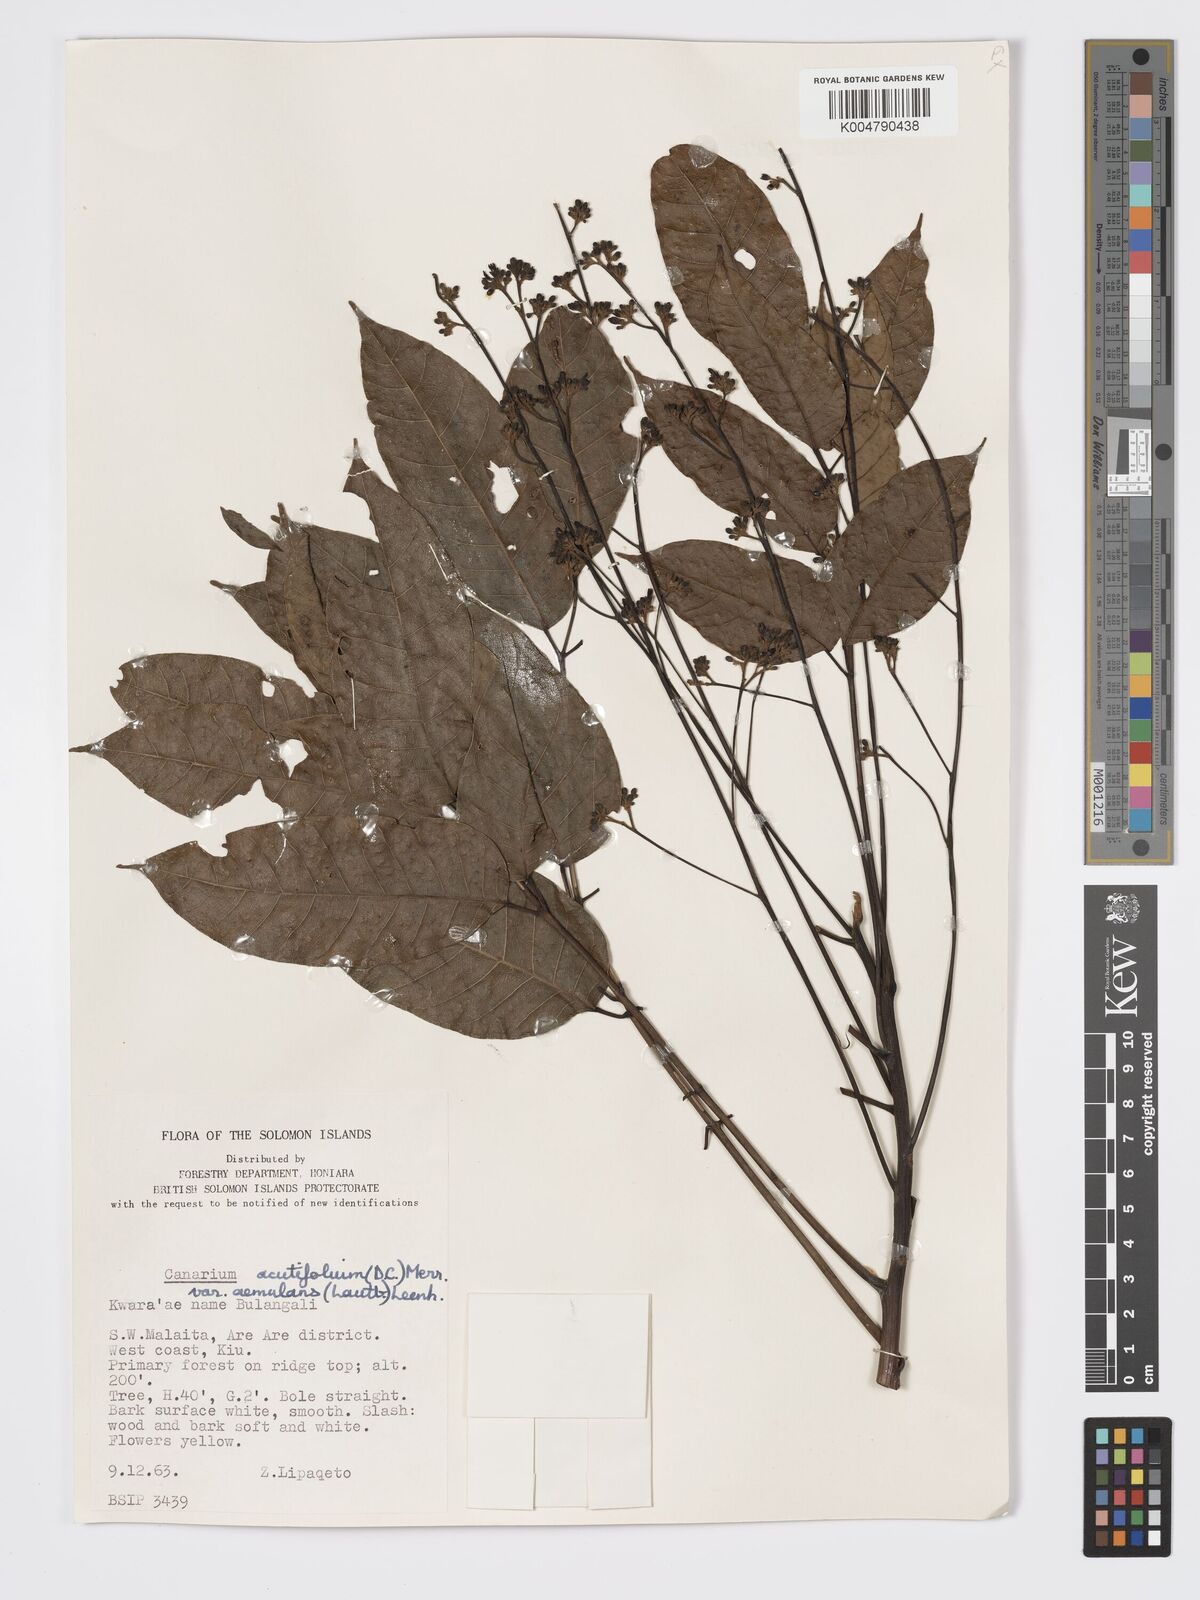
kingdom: Plantae
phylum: Tracheophyta
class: Magnoliopsida
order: Sapindales
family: Burseraceae
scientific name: Burseraceae
